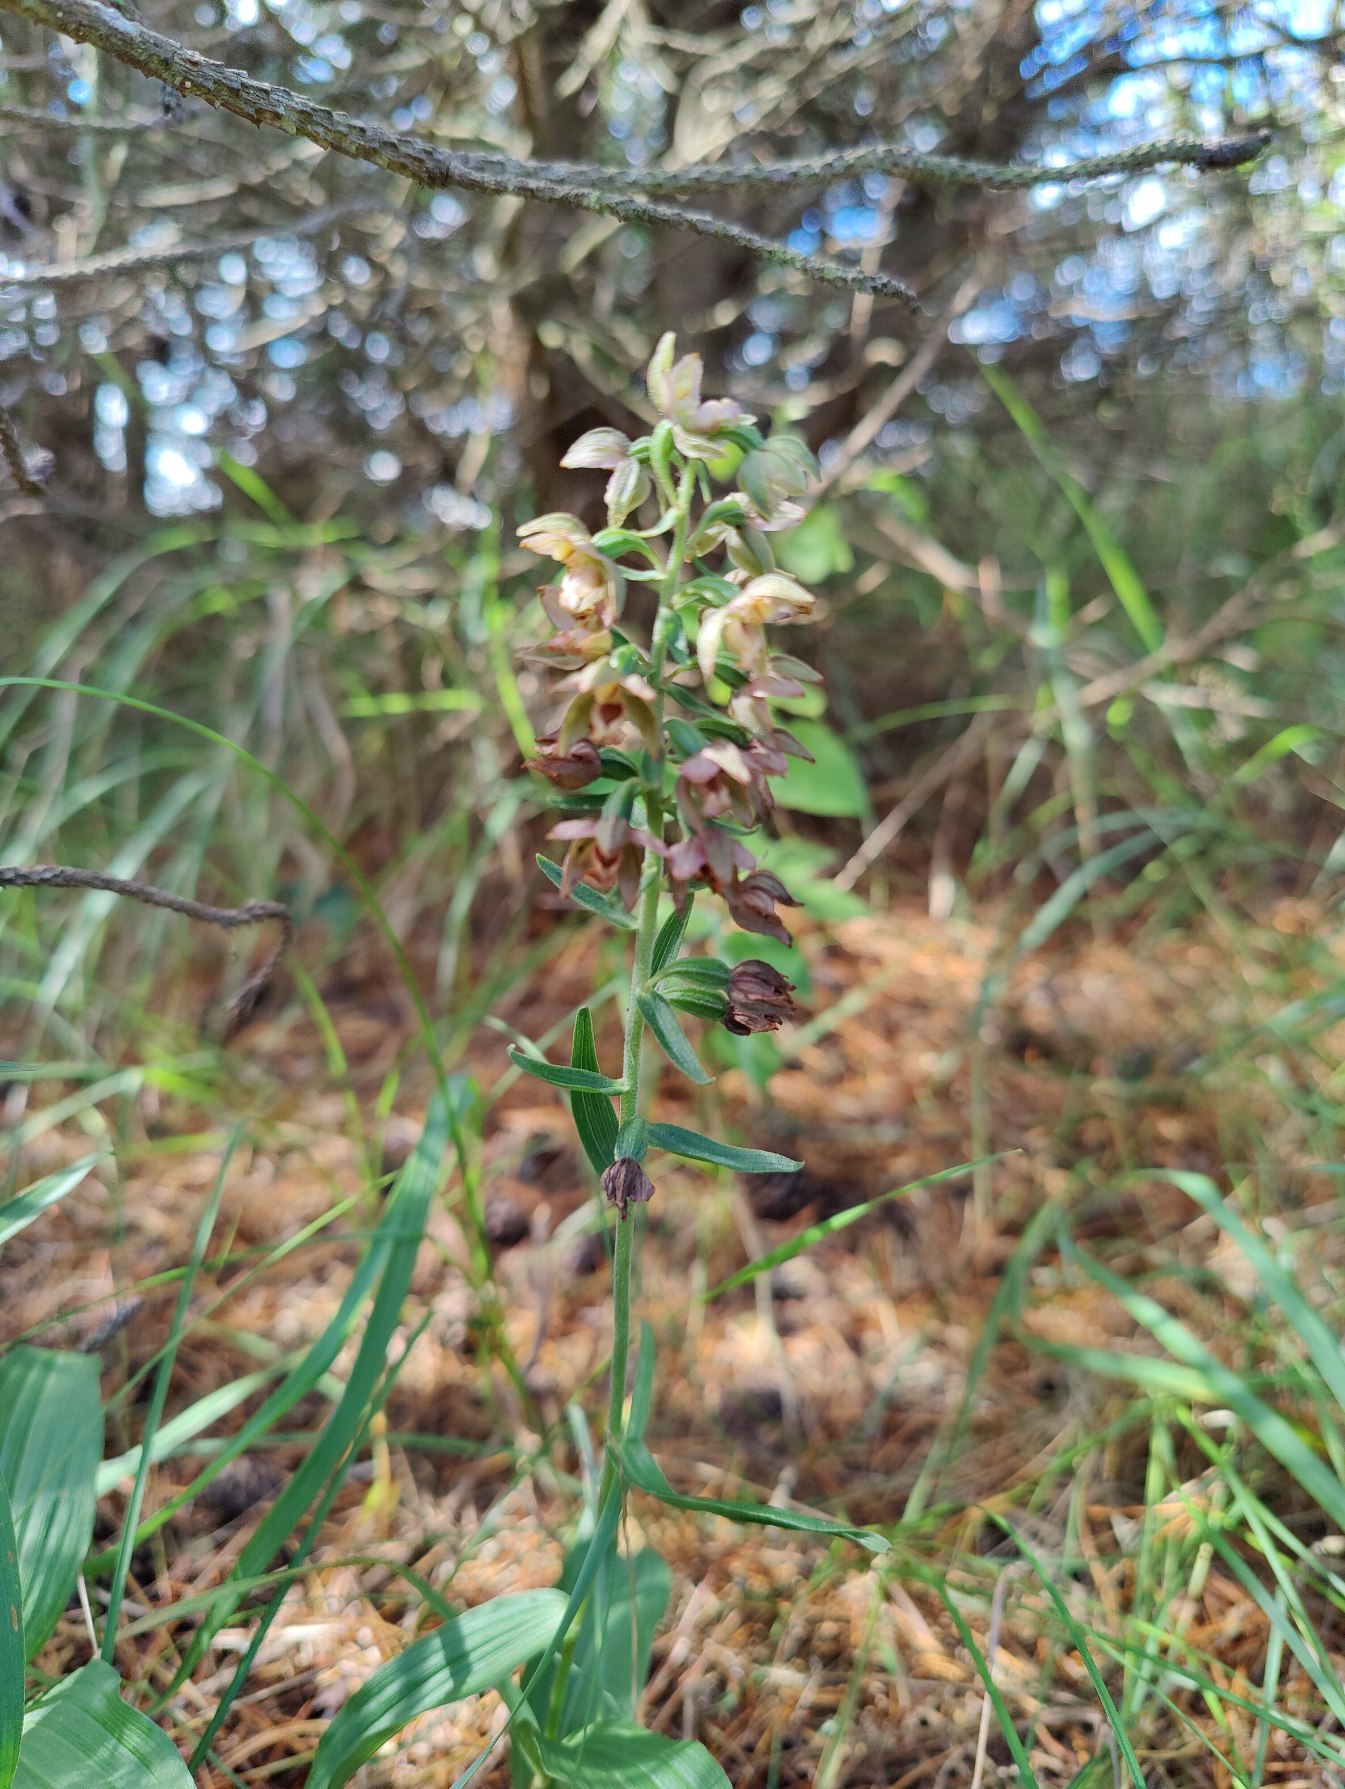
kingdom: Plantae
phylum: Tracheophyta
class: Liliopsida
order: Asparagales
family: Orchidaceae
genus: Epipactis
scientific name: Epipactis helleborine
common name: Skov-hullæbe
